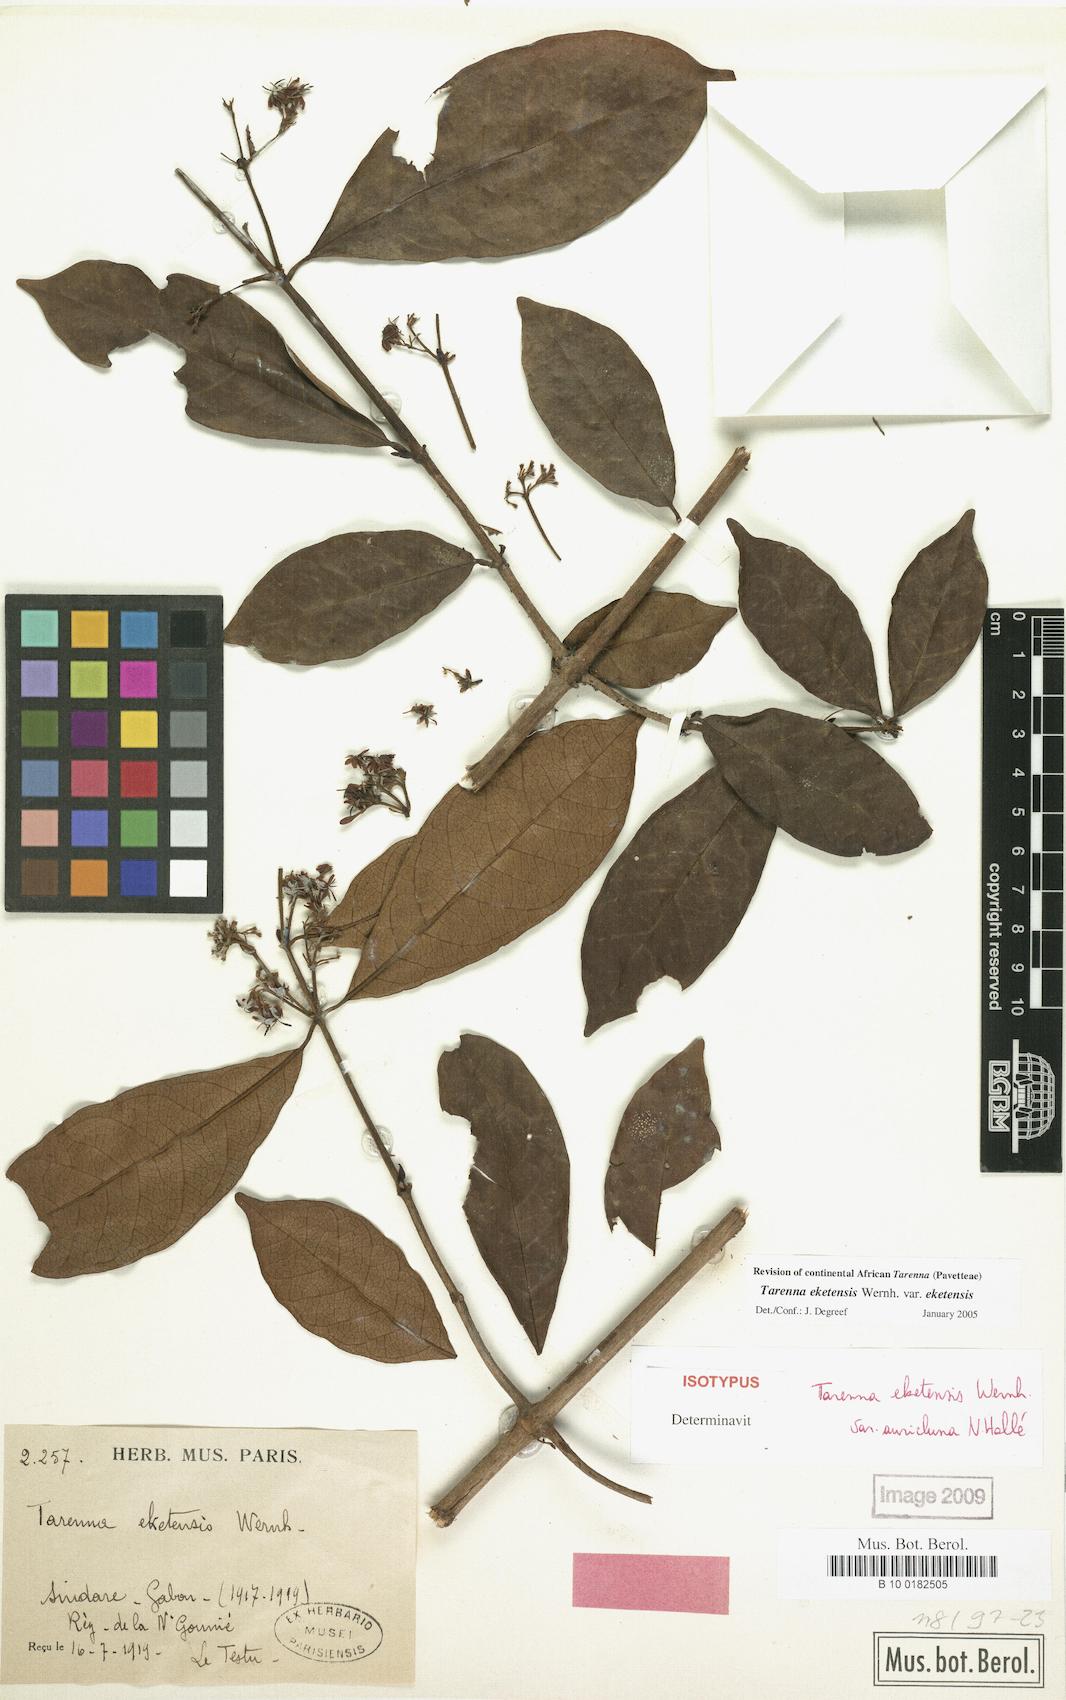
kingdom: Plantae
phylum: Tracheophyta
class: Magnoliopsida
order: Gentianales
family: Rubiaceae
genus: Tarenna
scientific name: Tarenna eketensis
